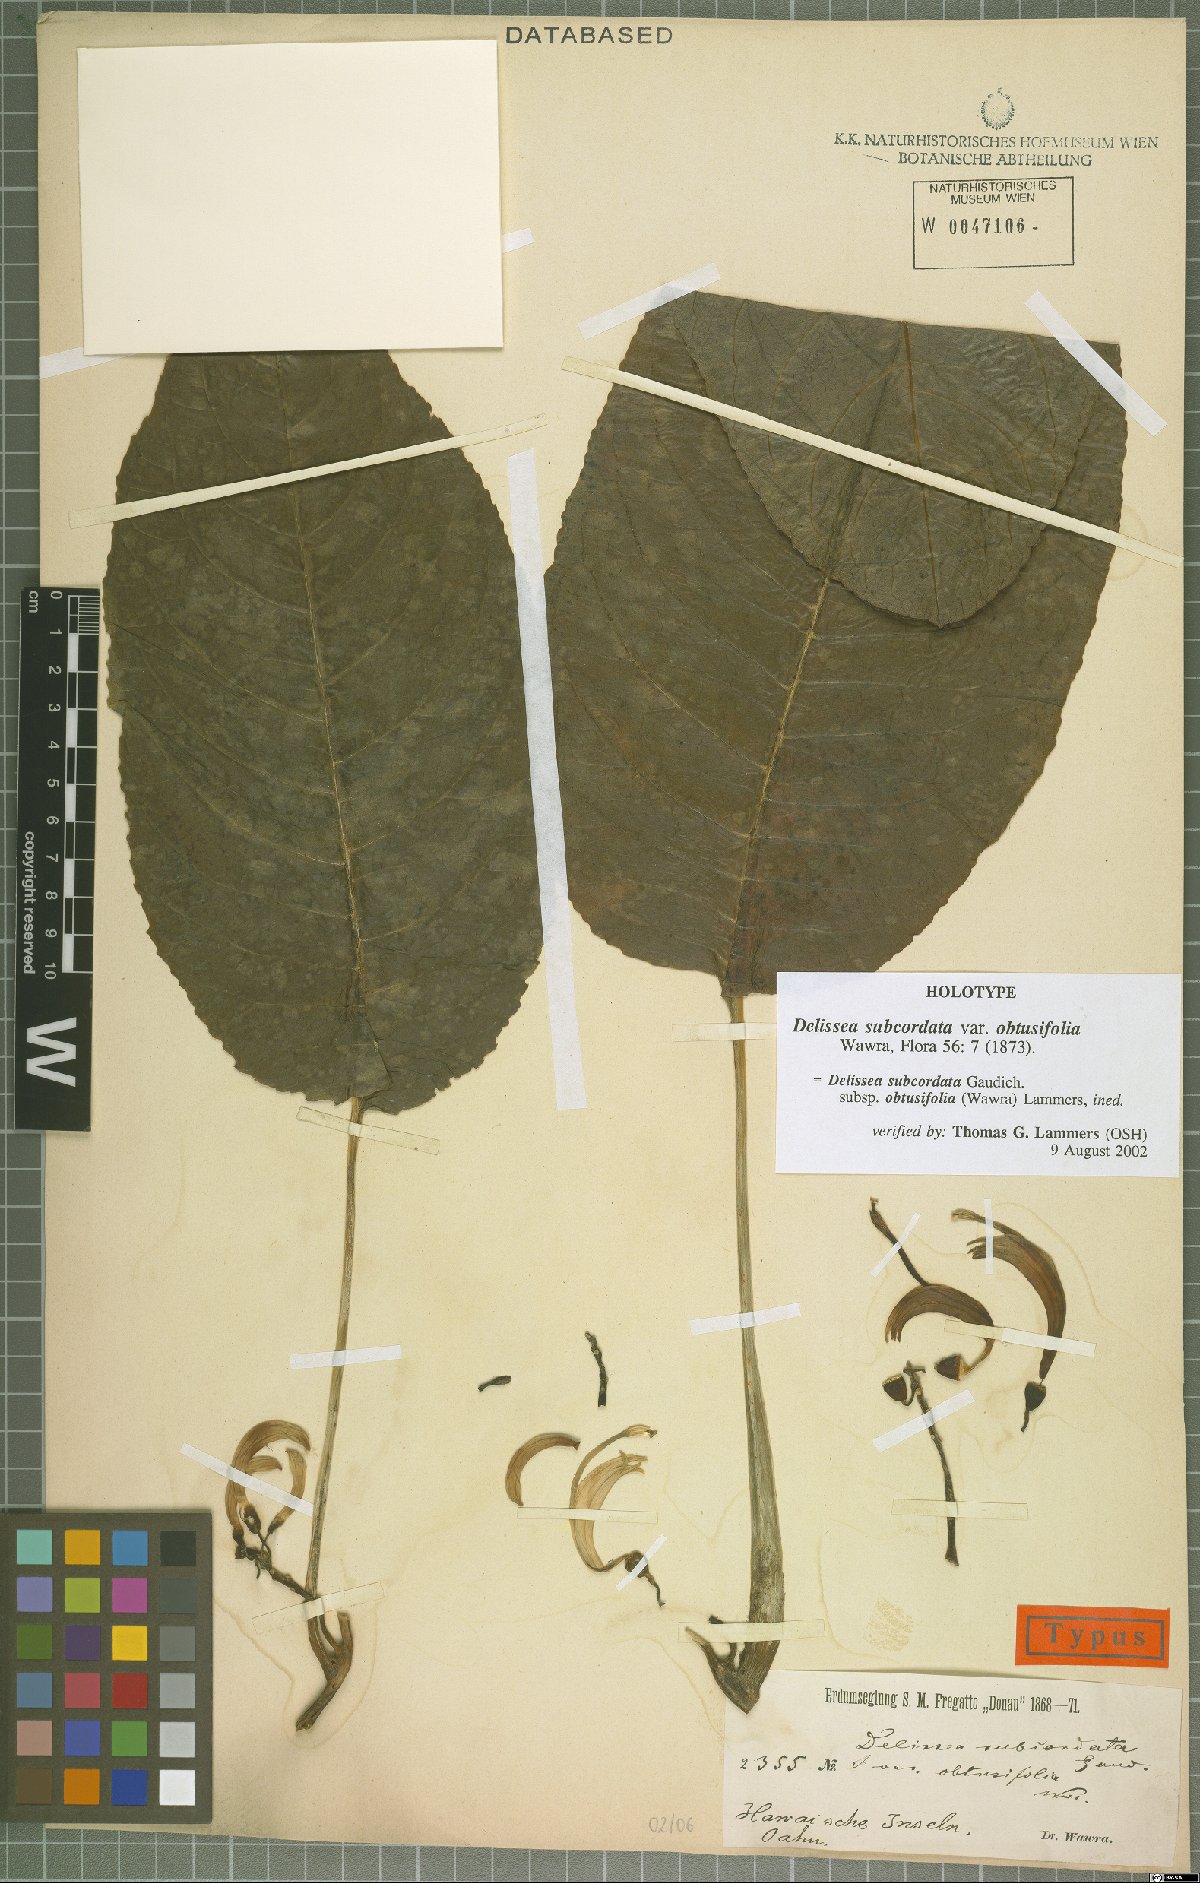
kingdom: Plantae
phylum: Tracheophyta
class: Magnoliopsida
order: Asterales
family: Campanulaceae
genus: Delissea
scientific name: Delissea subcordata
